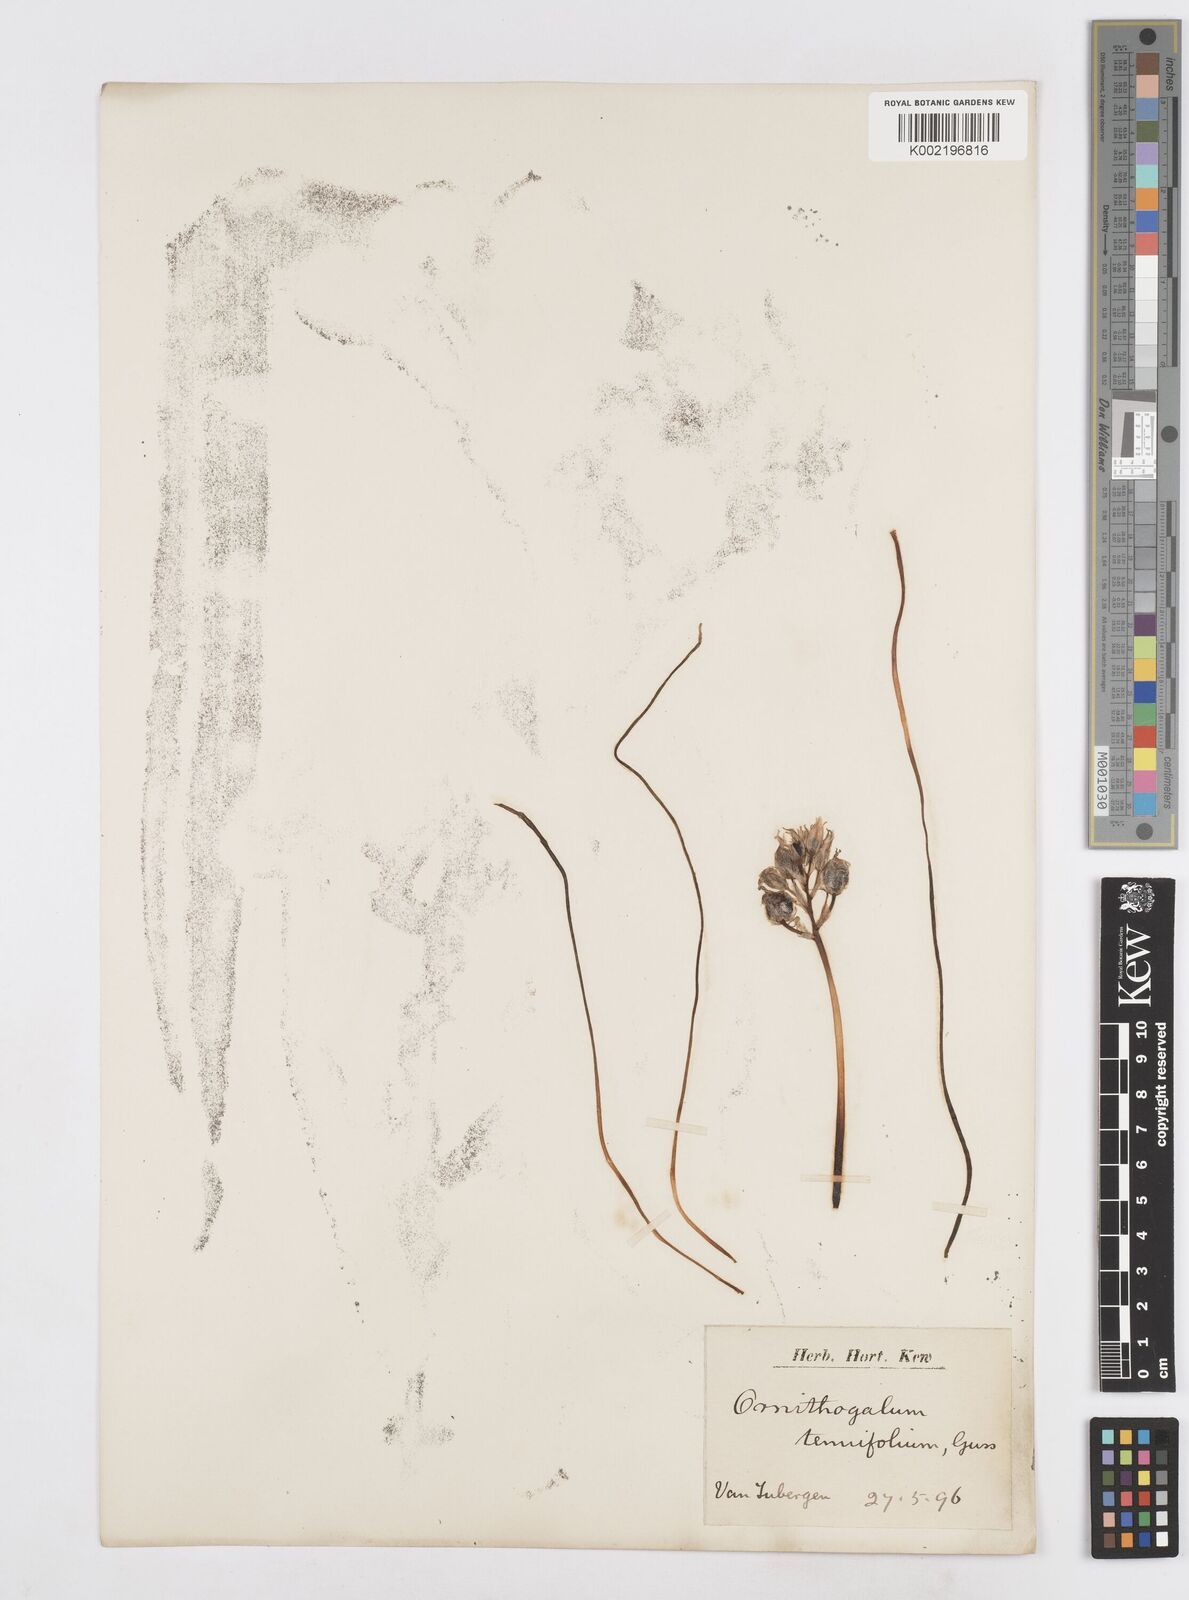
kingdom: Plantae
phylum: Tracheophyta
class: Liliopsida
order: Asparagales
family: Asparagaceae
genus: Albuca
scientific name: Albuca virens
